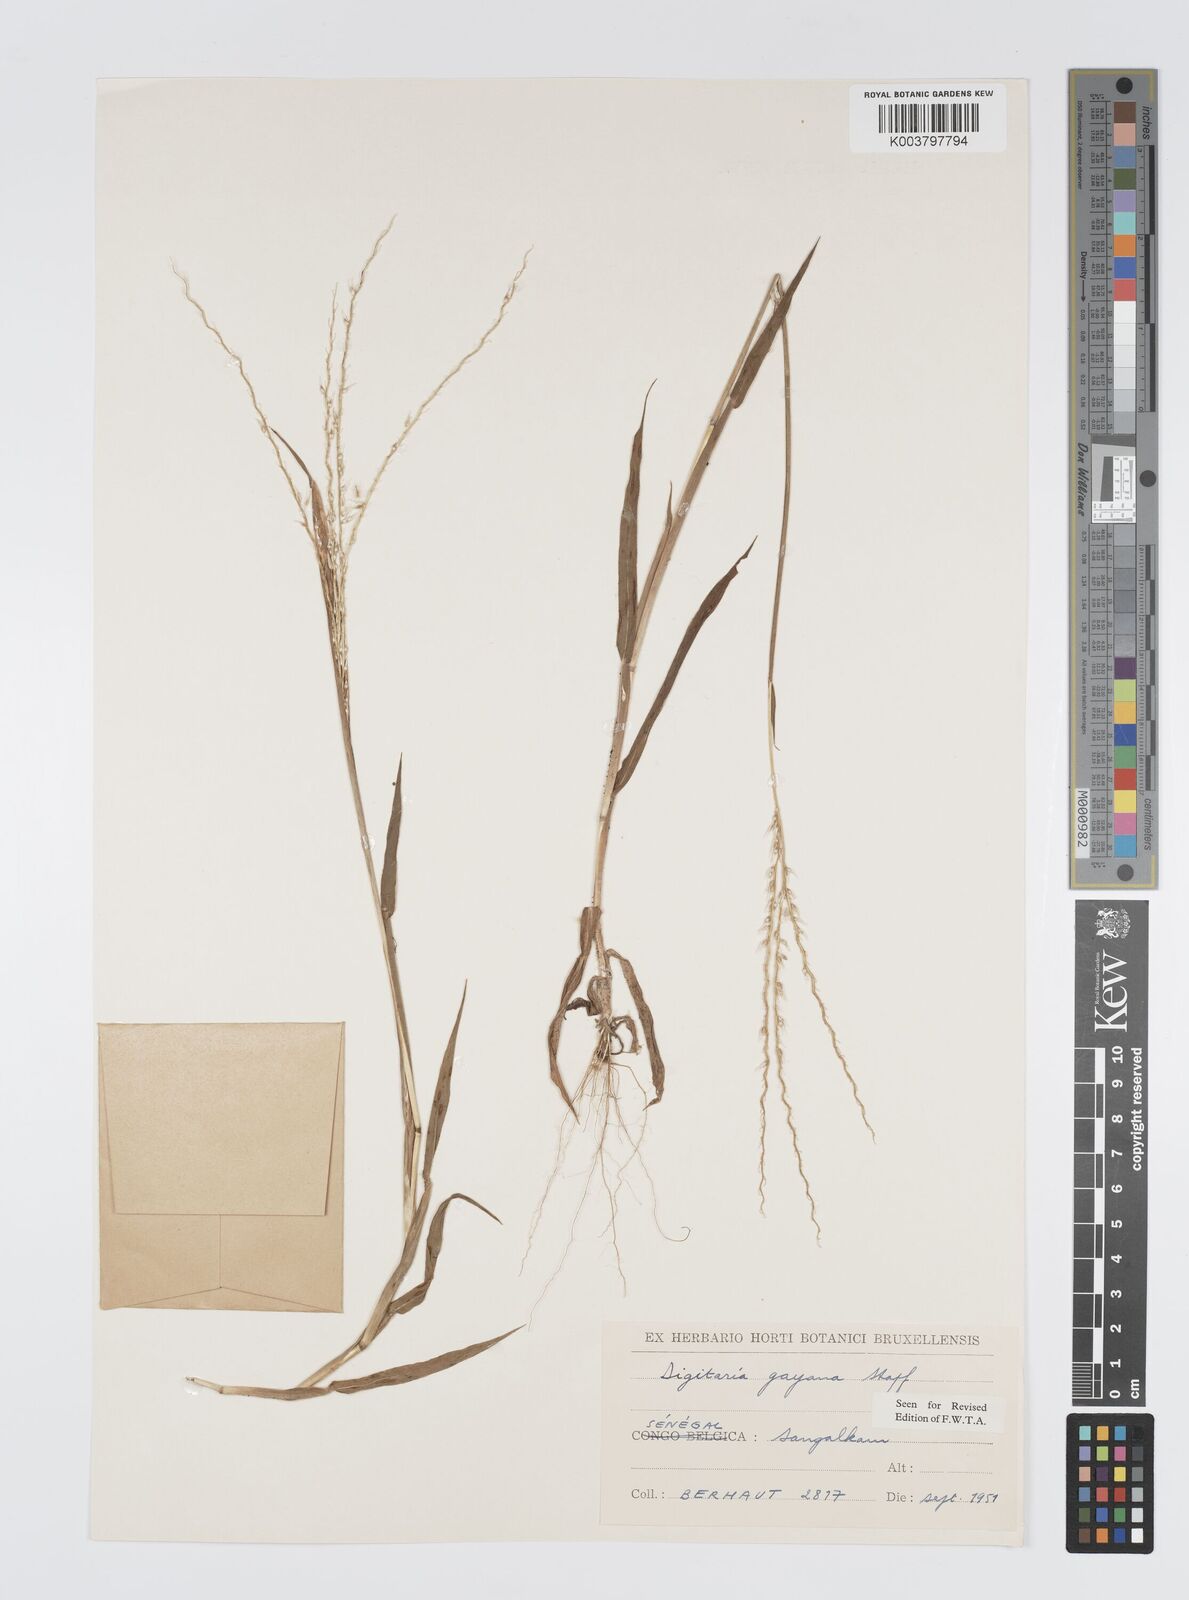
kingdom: Plantae
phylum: Tracheophyta
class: Liliopsida
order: Poales
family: Poaceae
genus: Digitaria
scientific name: Digitaria gayana
